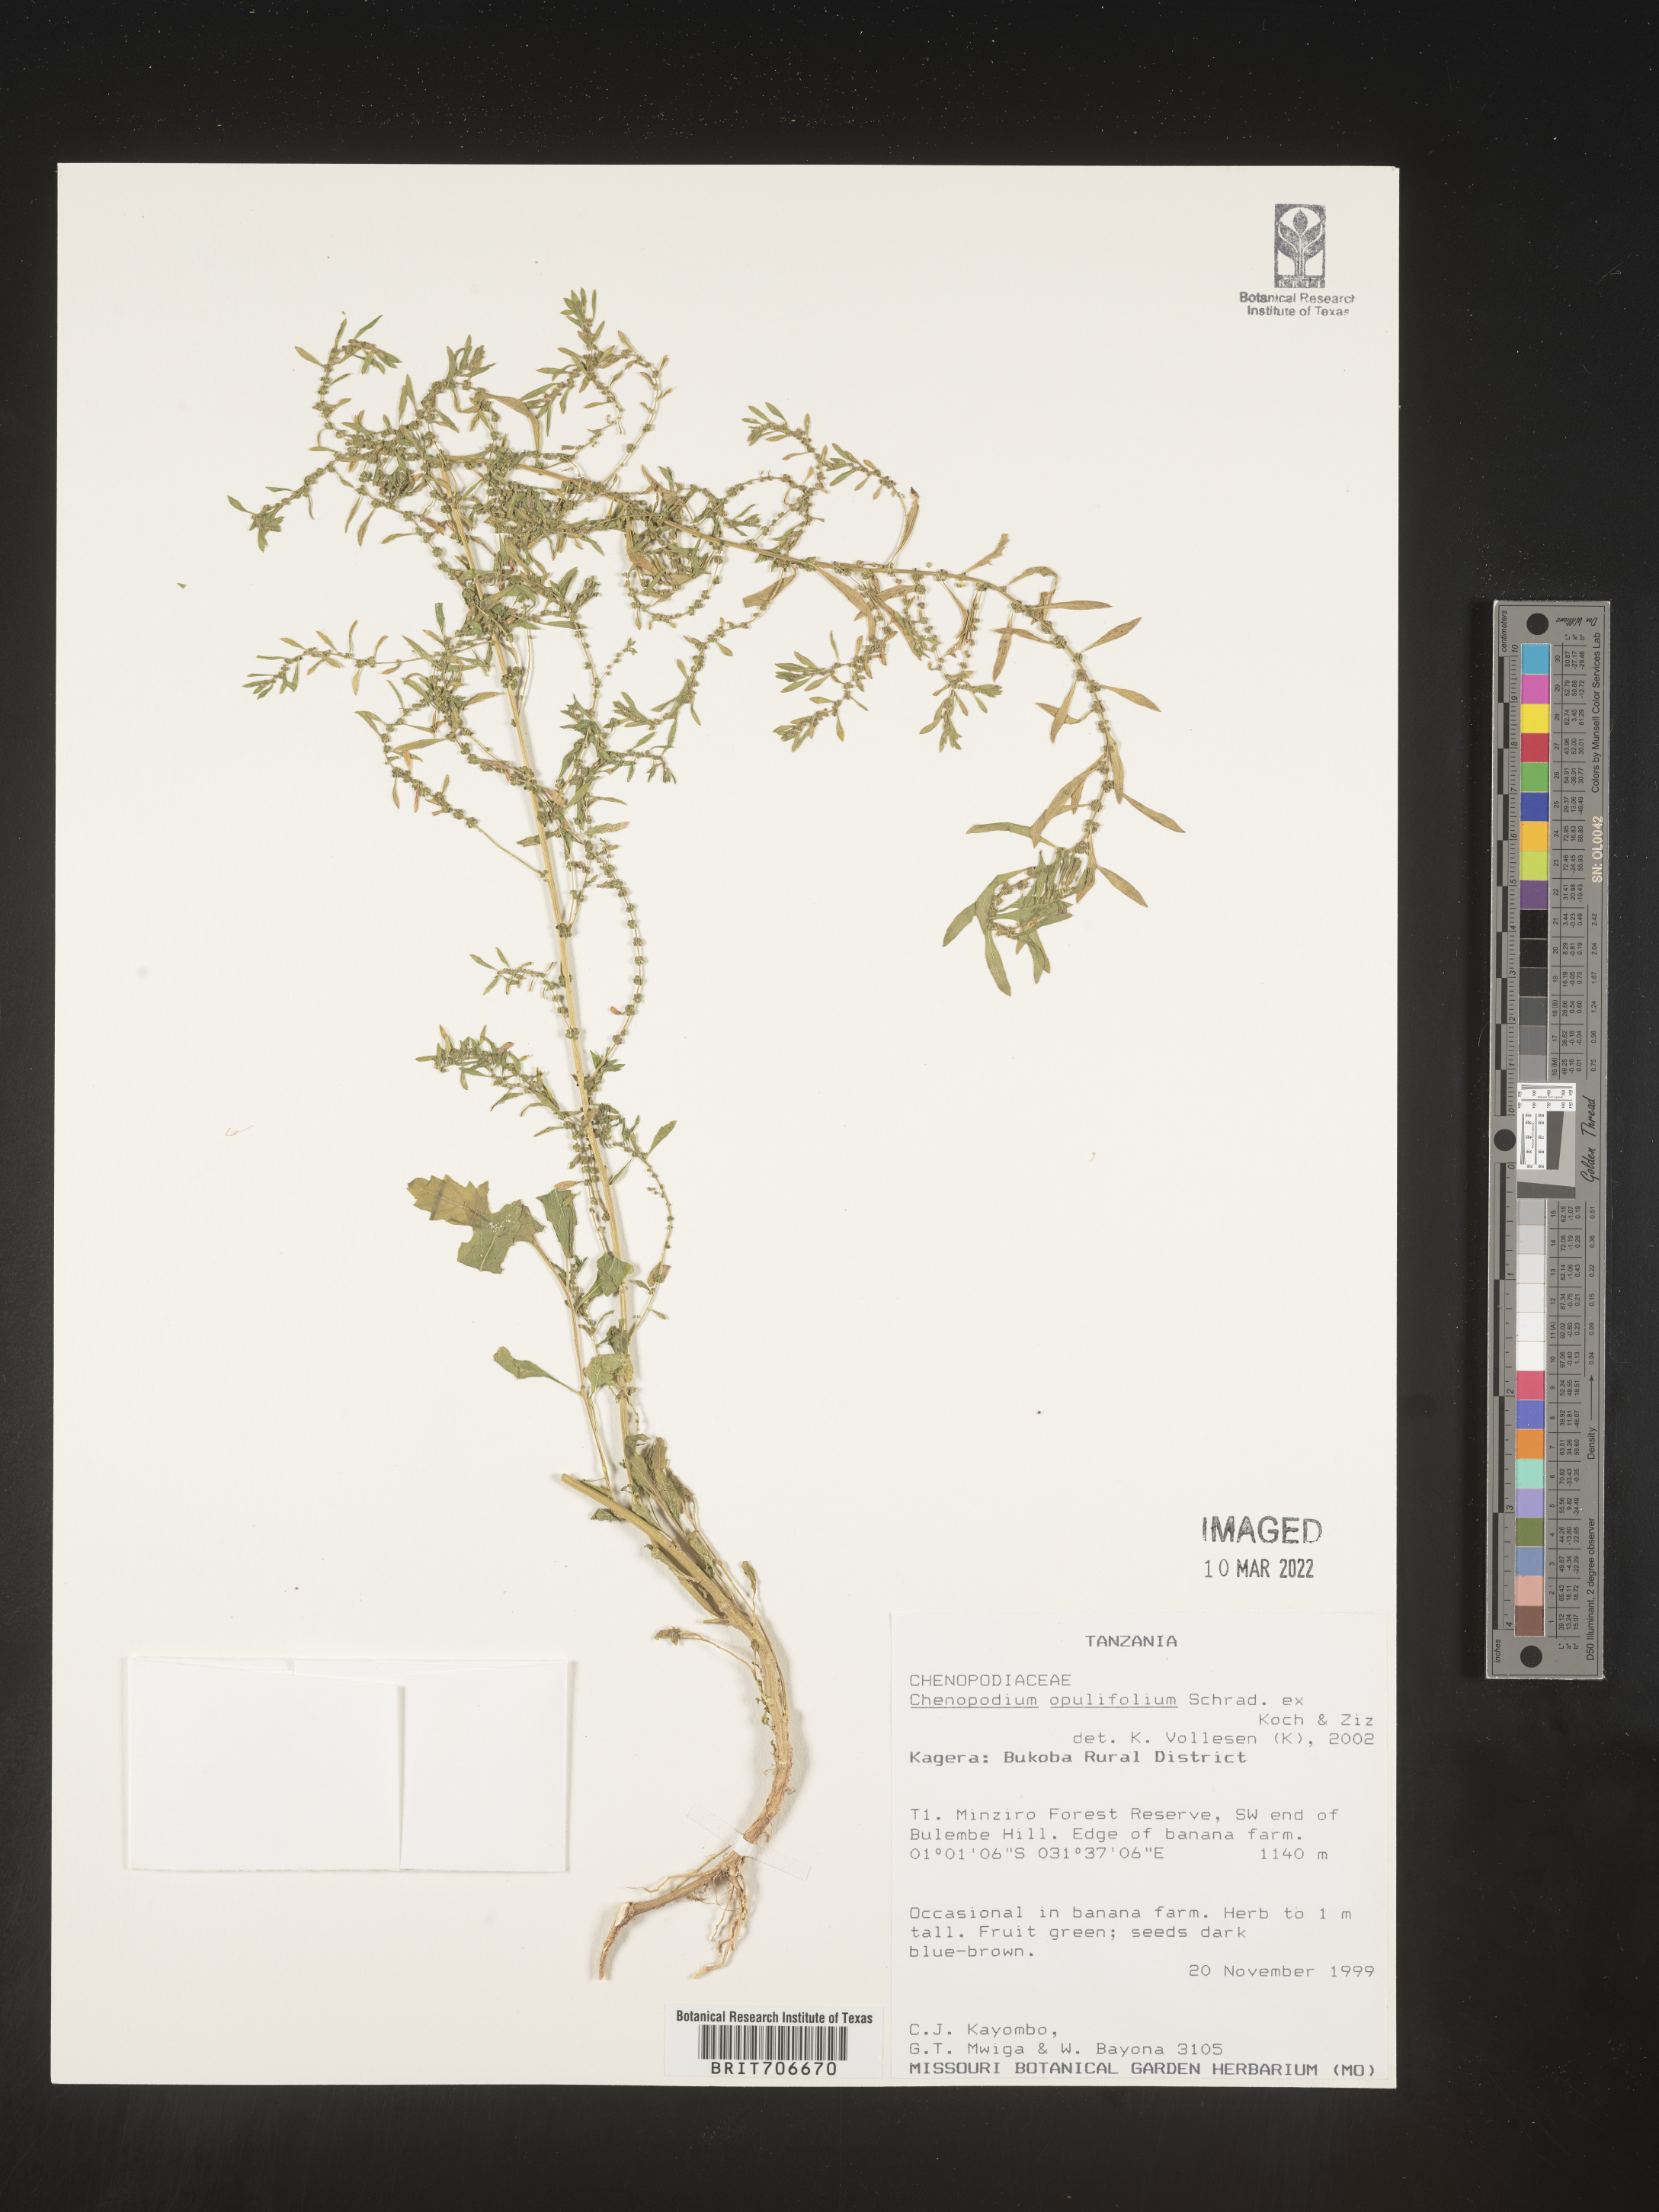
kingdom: Plantae
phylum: Tracheophyta
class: Magnoliopsida
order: Caryophyllales
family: Amaranthaceae
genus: Chenopodium
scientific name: Chenopodium
